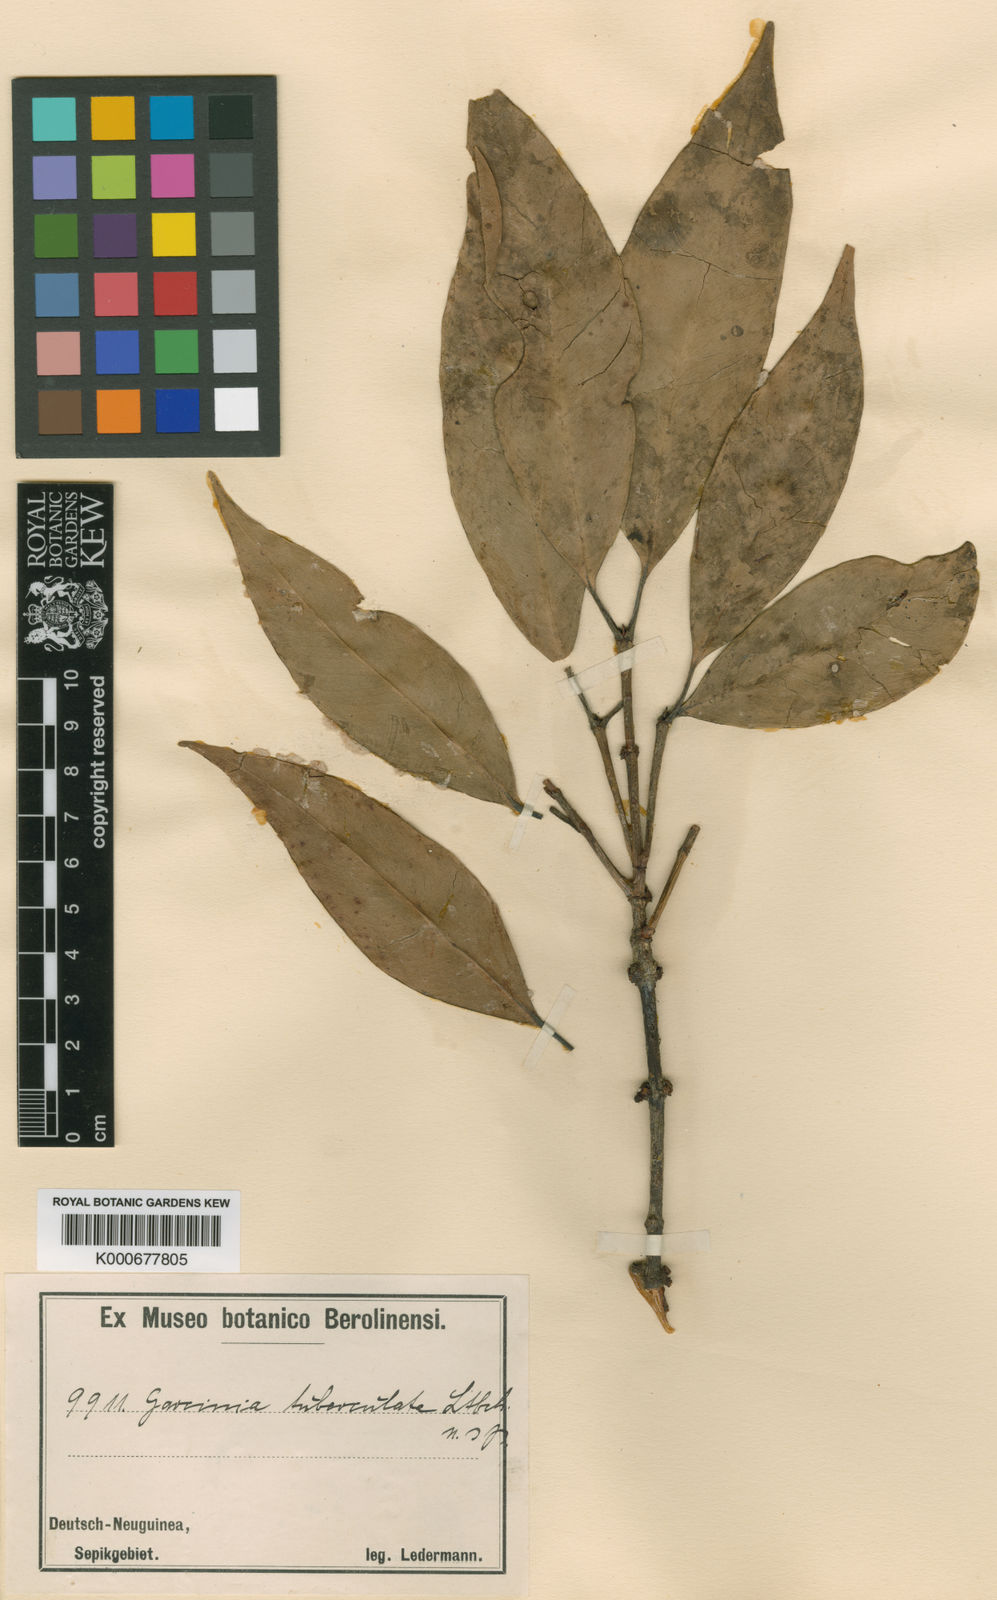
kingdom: Plantae
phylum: Tracheophyta
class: Magnoliopsida
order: Malpighiales
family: Clusiaceae
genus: Garcinia
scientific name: Garcinia tuberculata
